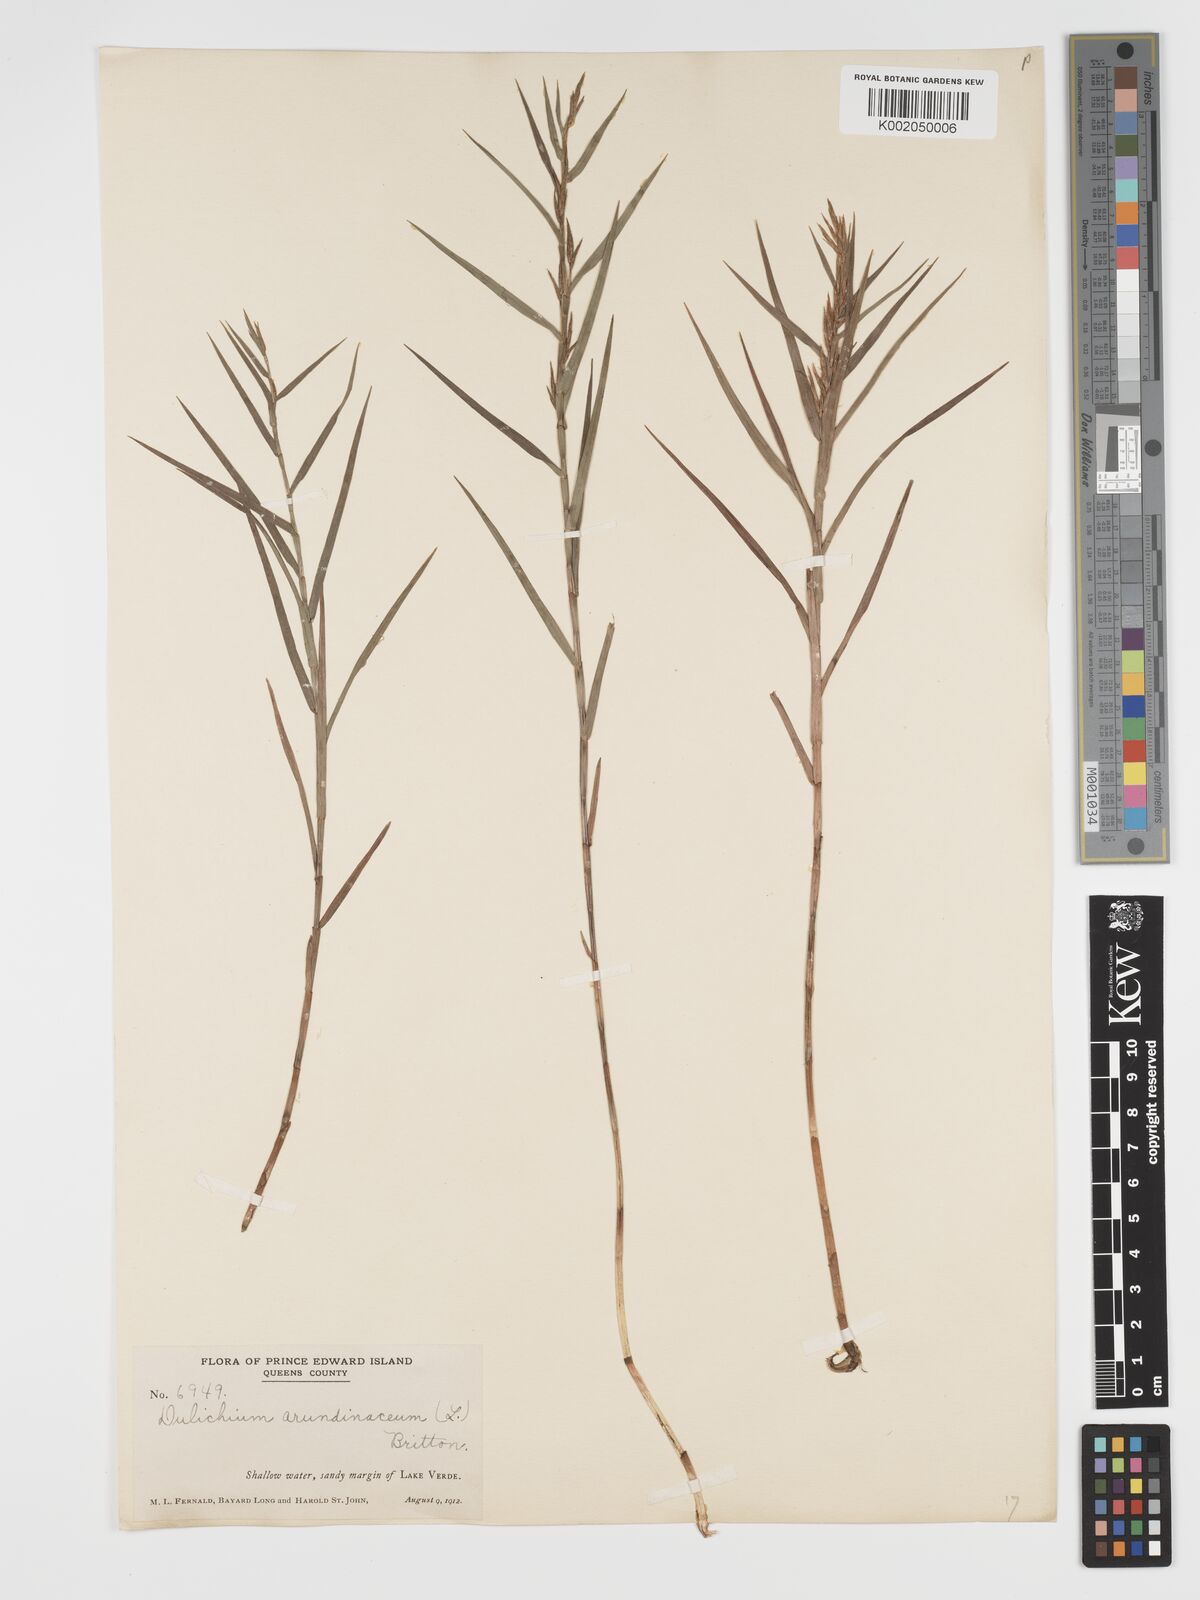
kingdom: Plantae
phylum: Tracheophyta
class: Liliopsida
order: Poales
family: Cyperaceae
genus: Dulichium
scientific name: Dulichium arundinaceum
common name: Three-way sedge
